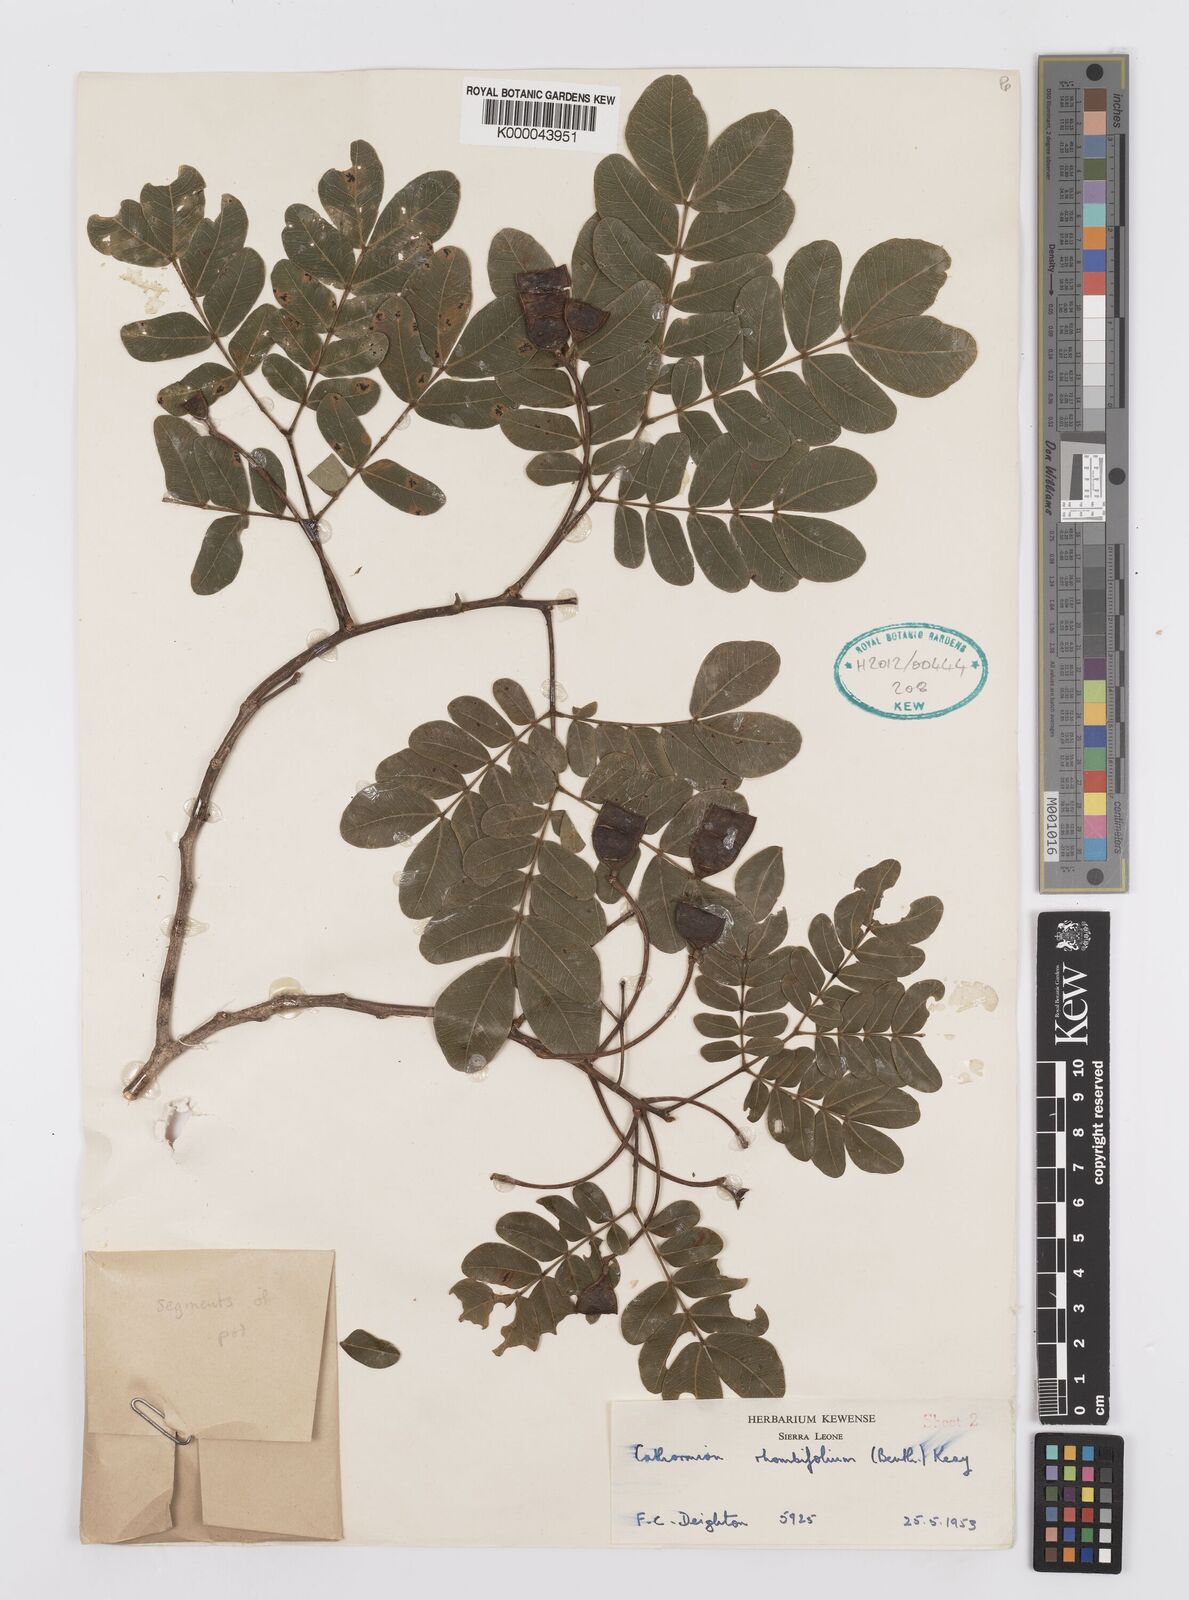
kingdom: Plantae
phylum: Tracheophyta
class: Magnoliopsida
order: Fabales
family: Fabaceae
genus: Albizia
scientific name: Albizia rhombifolia
